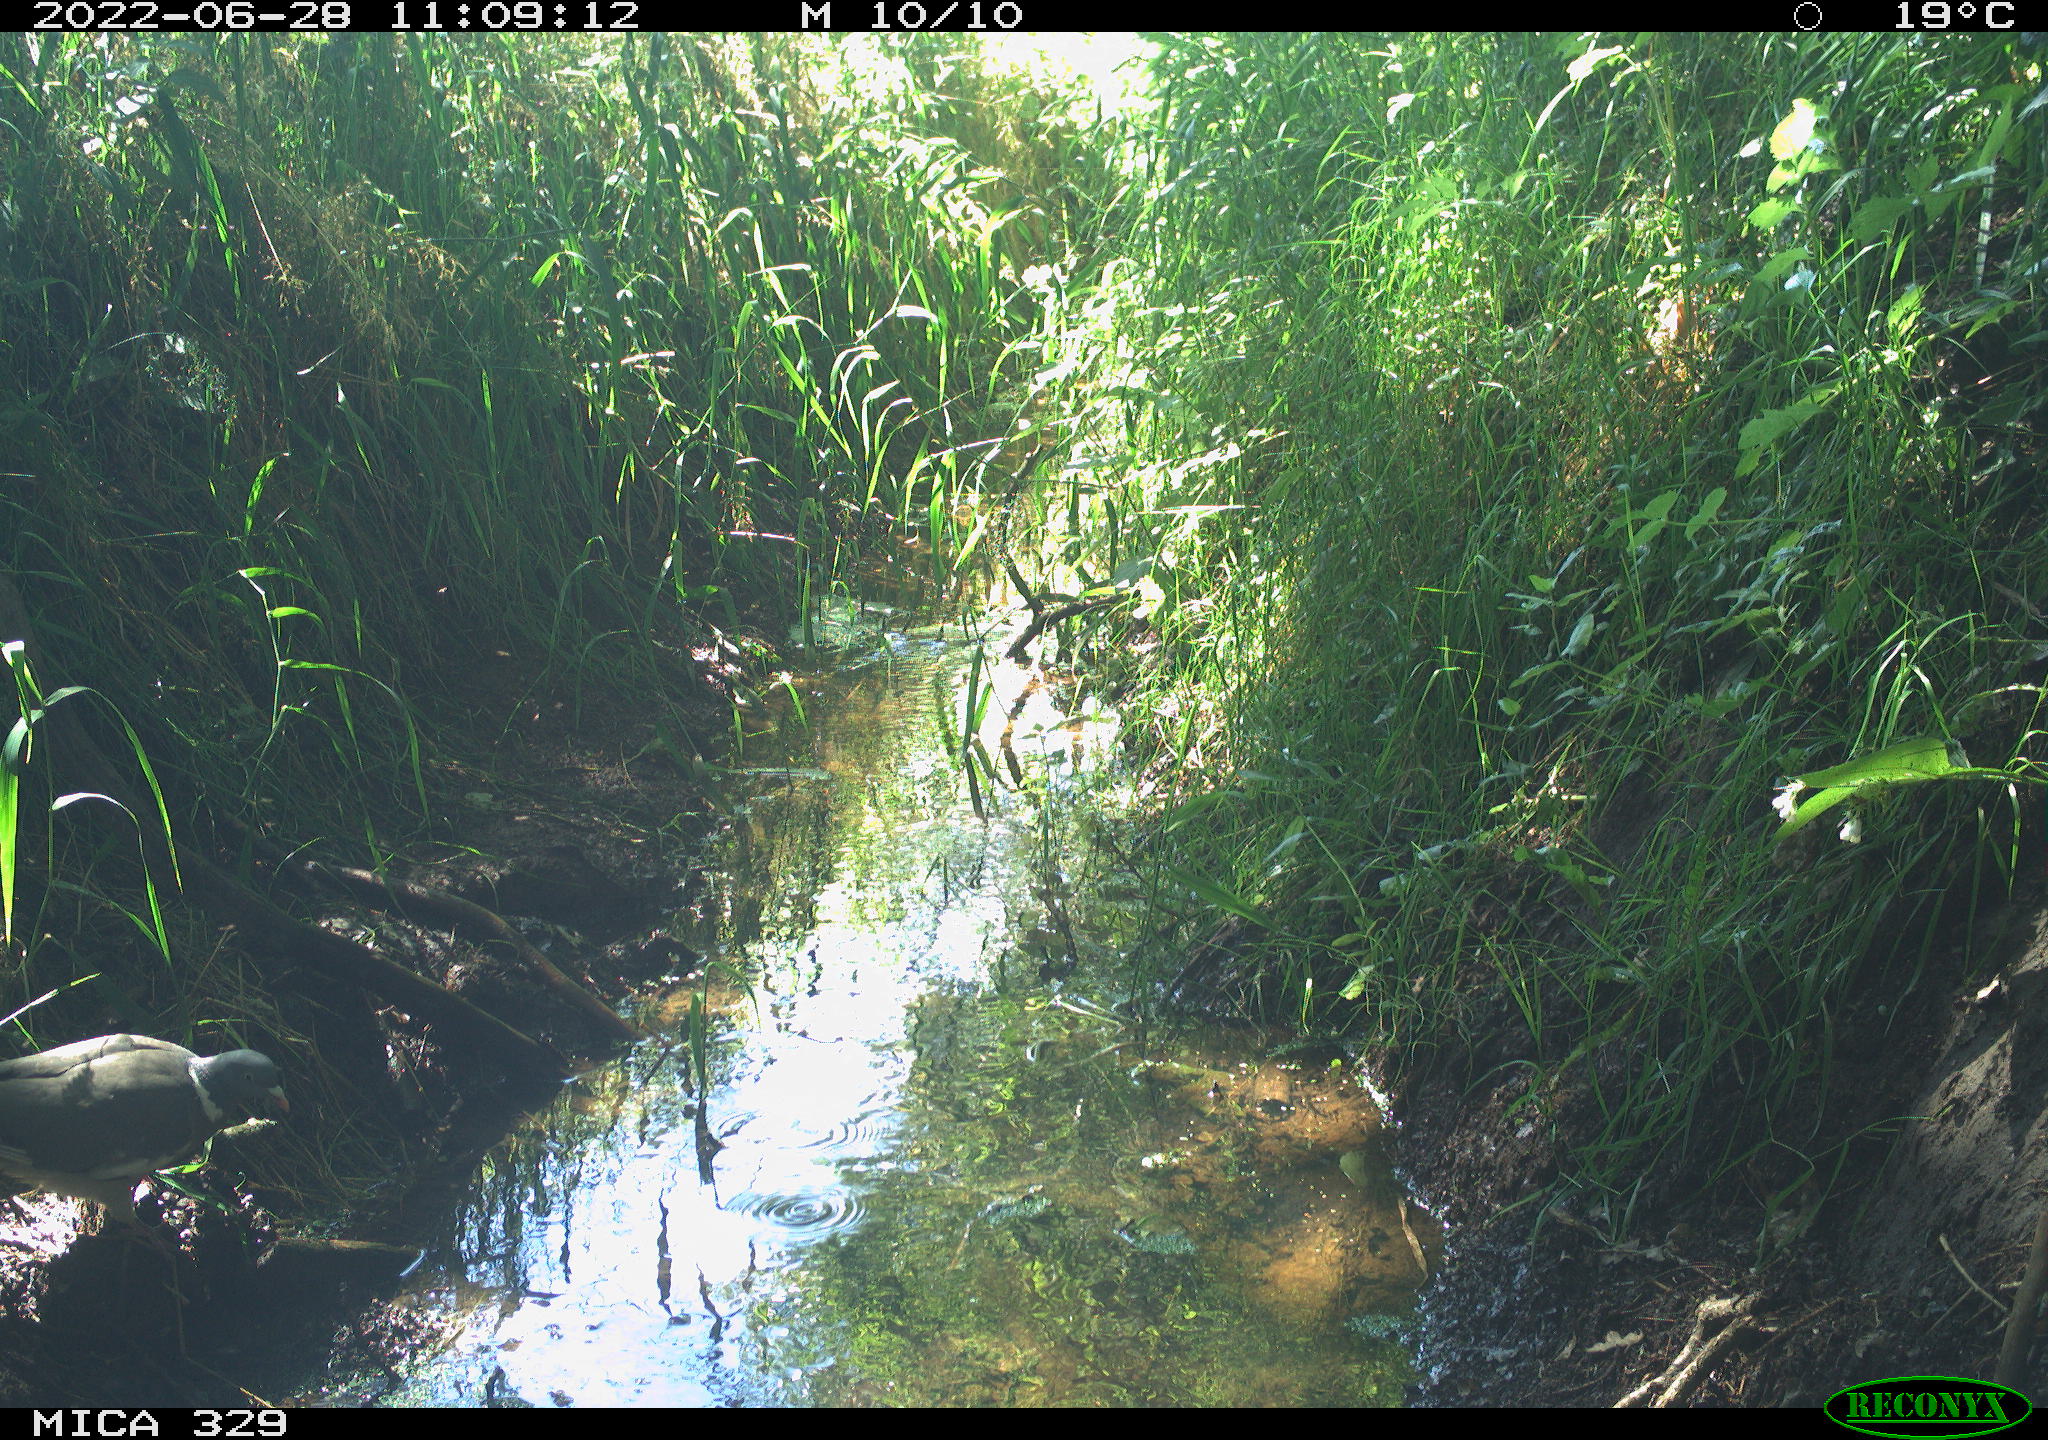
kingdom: Animalia
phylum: Chordata
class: Aves
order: Columbiformes
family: Columbidae
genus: Columba
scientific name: Columba palumbus
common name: Common wood pigeon
